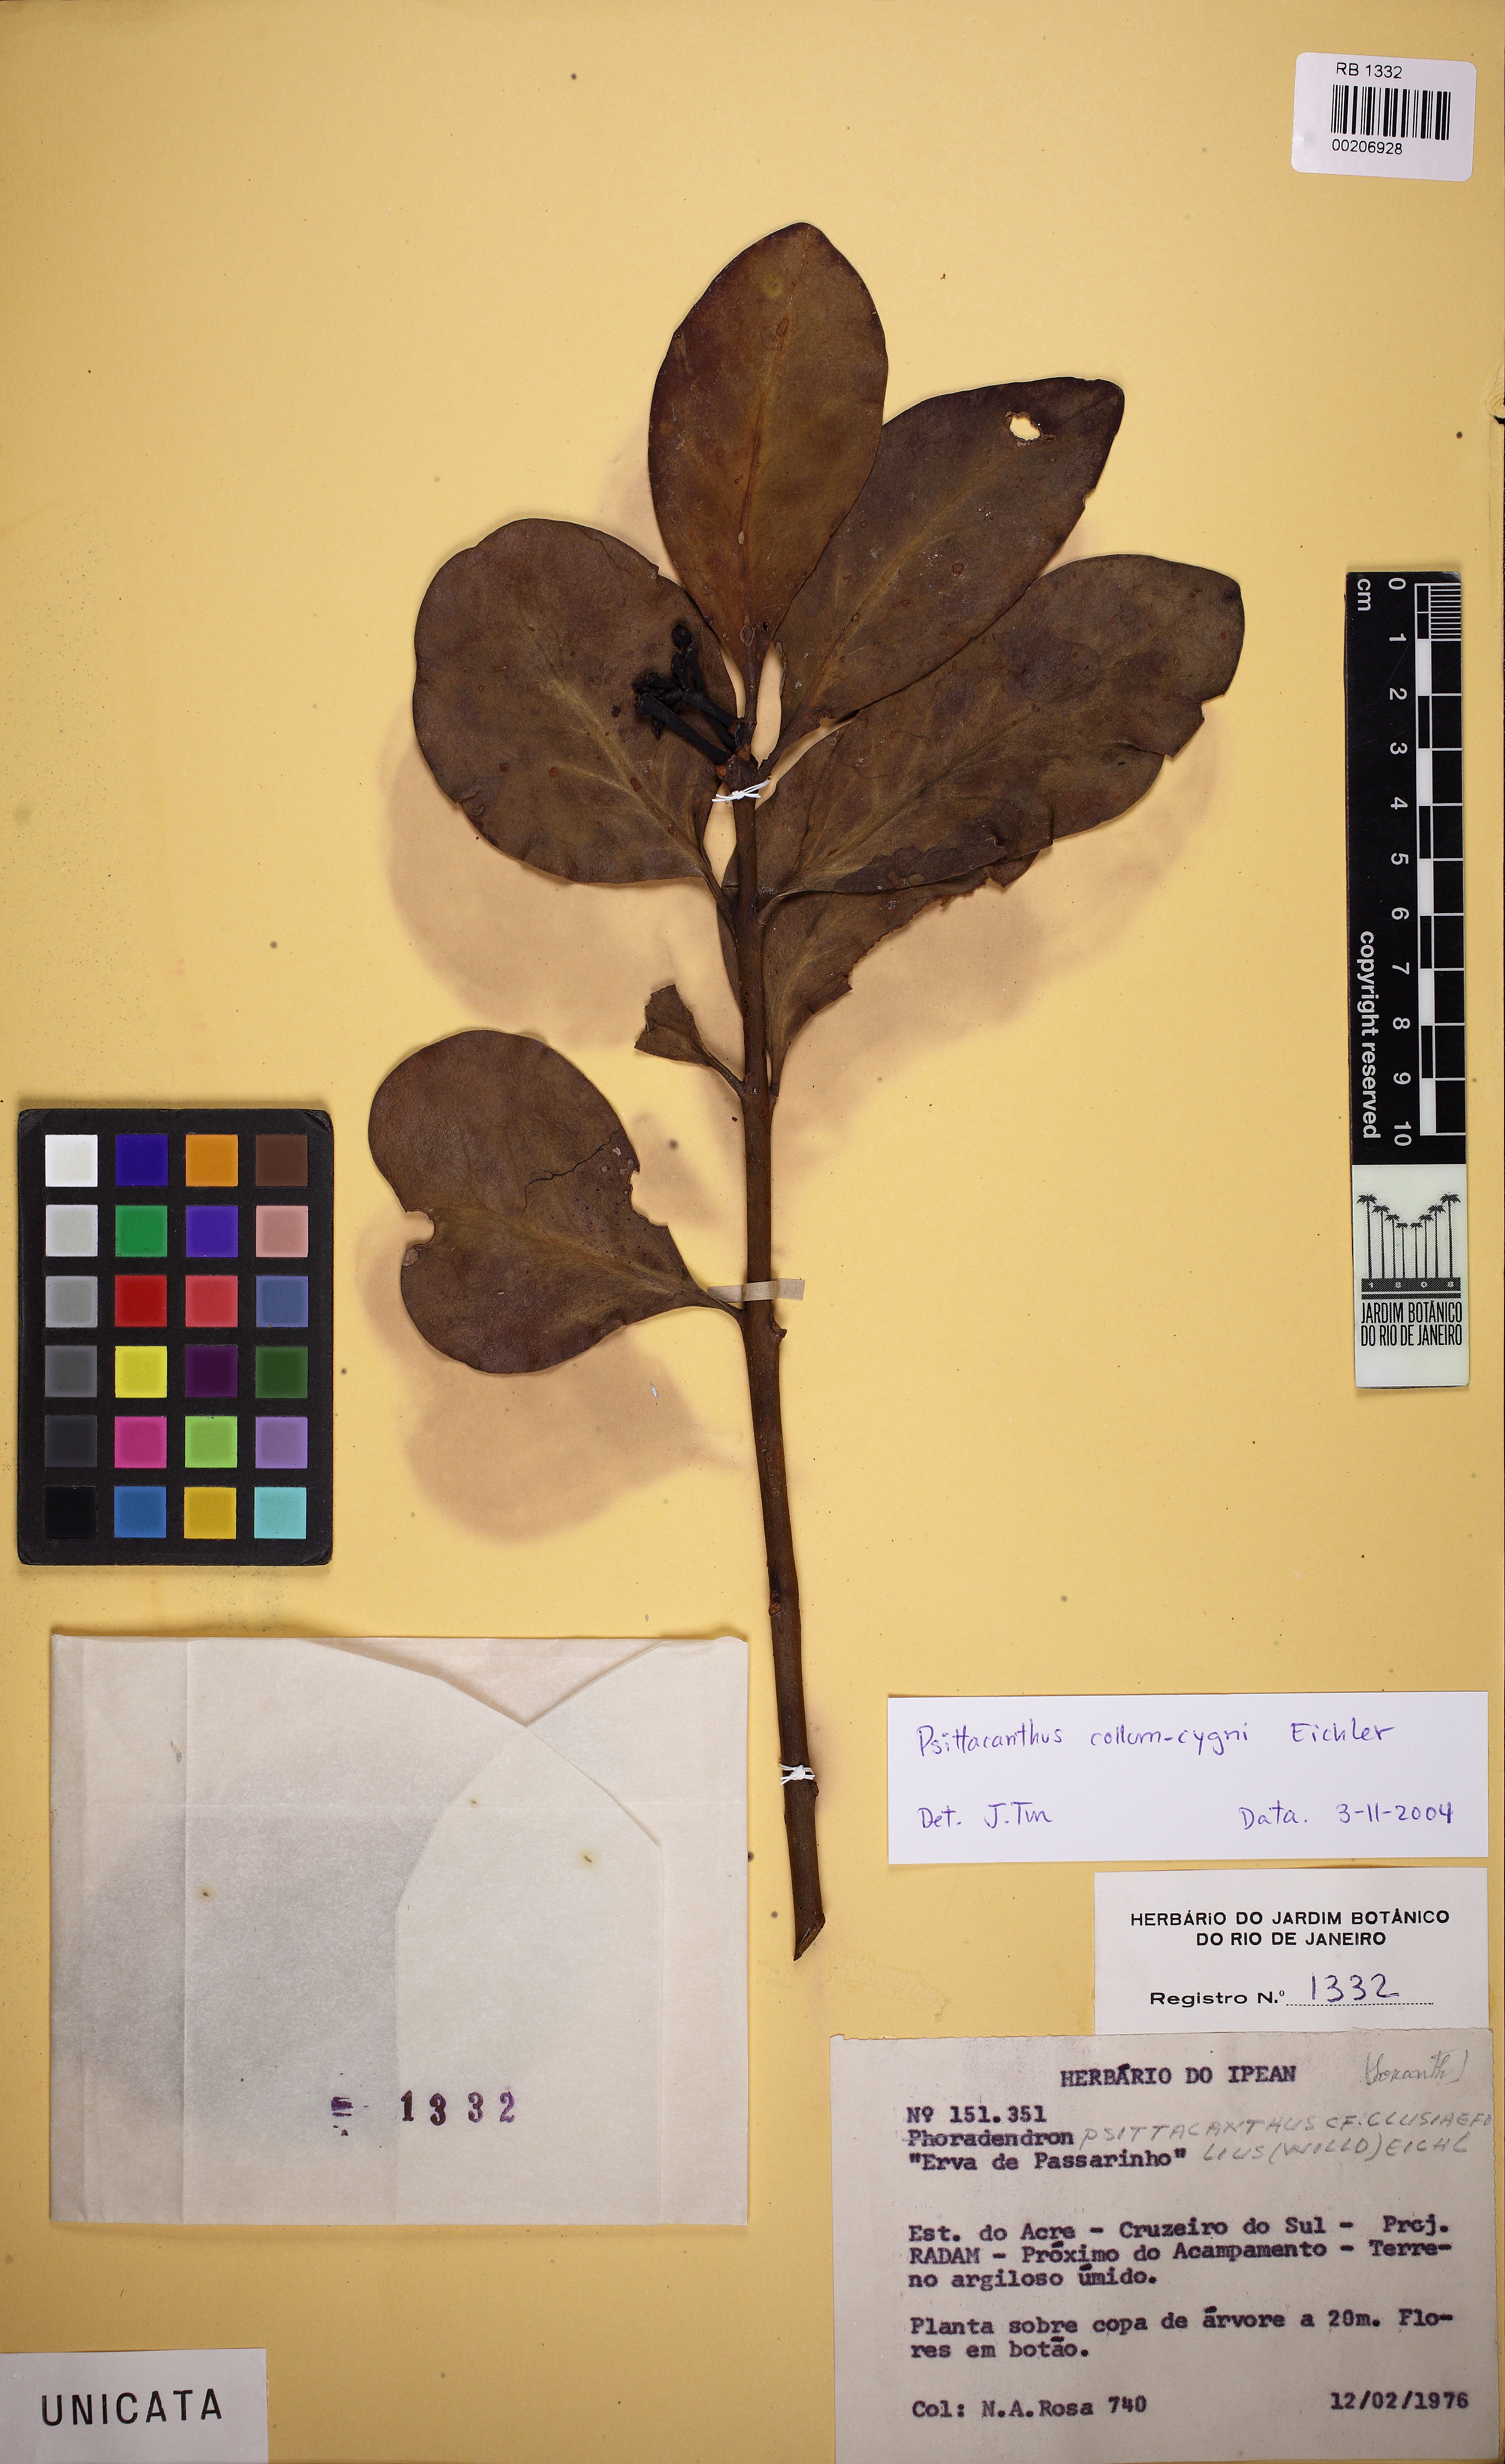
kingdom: Plantae
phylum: Tracheophyta
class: Magnoliopsida
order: Santalales
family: Loranthaceae
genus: Psittacanthus
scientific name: Psittacanthus eucalyptifolius
